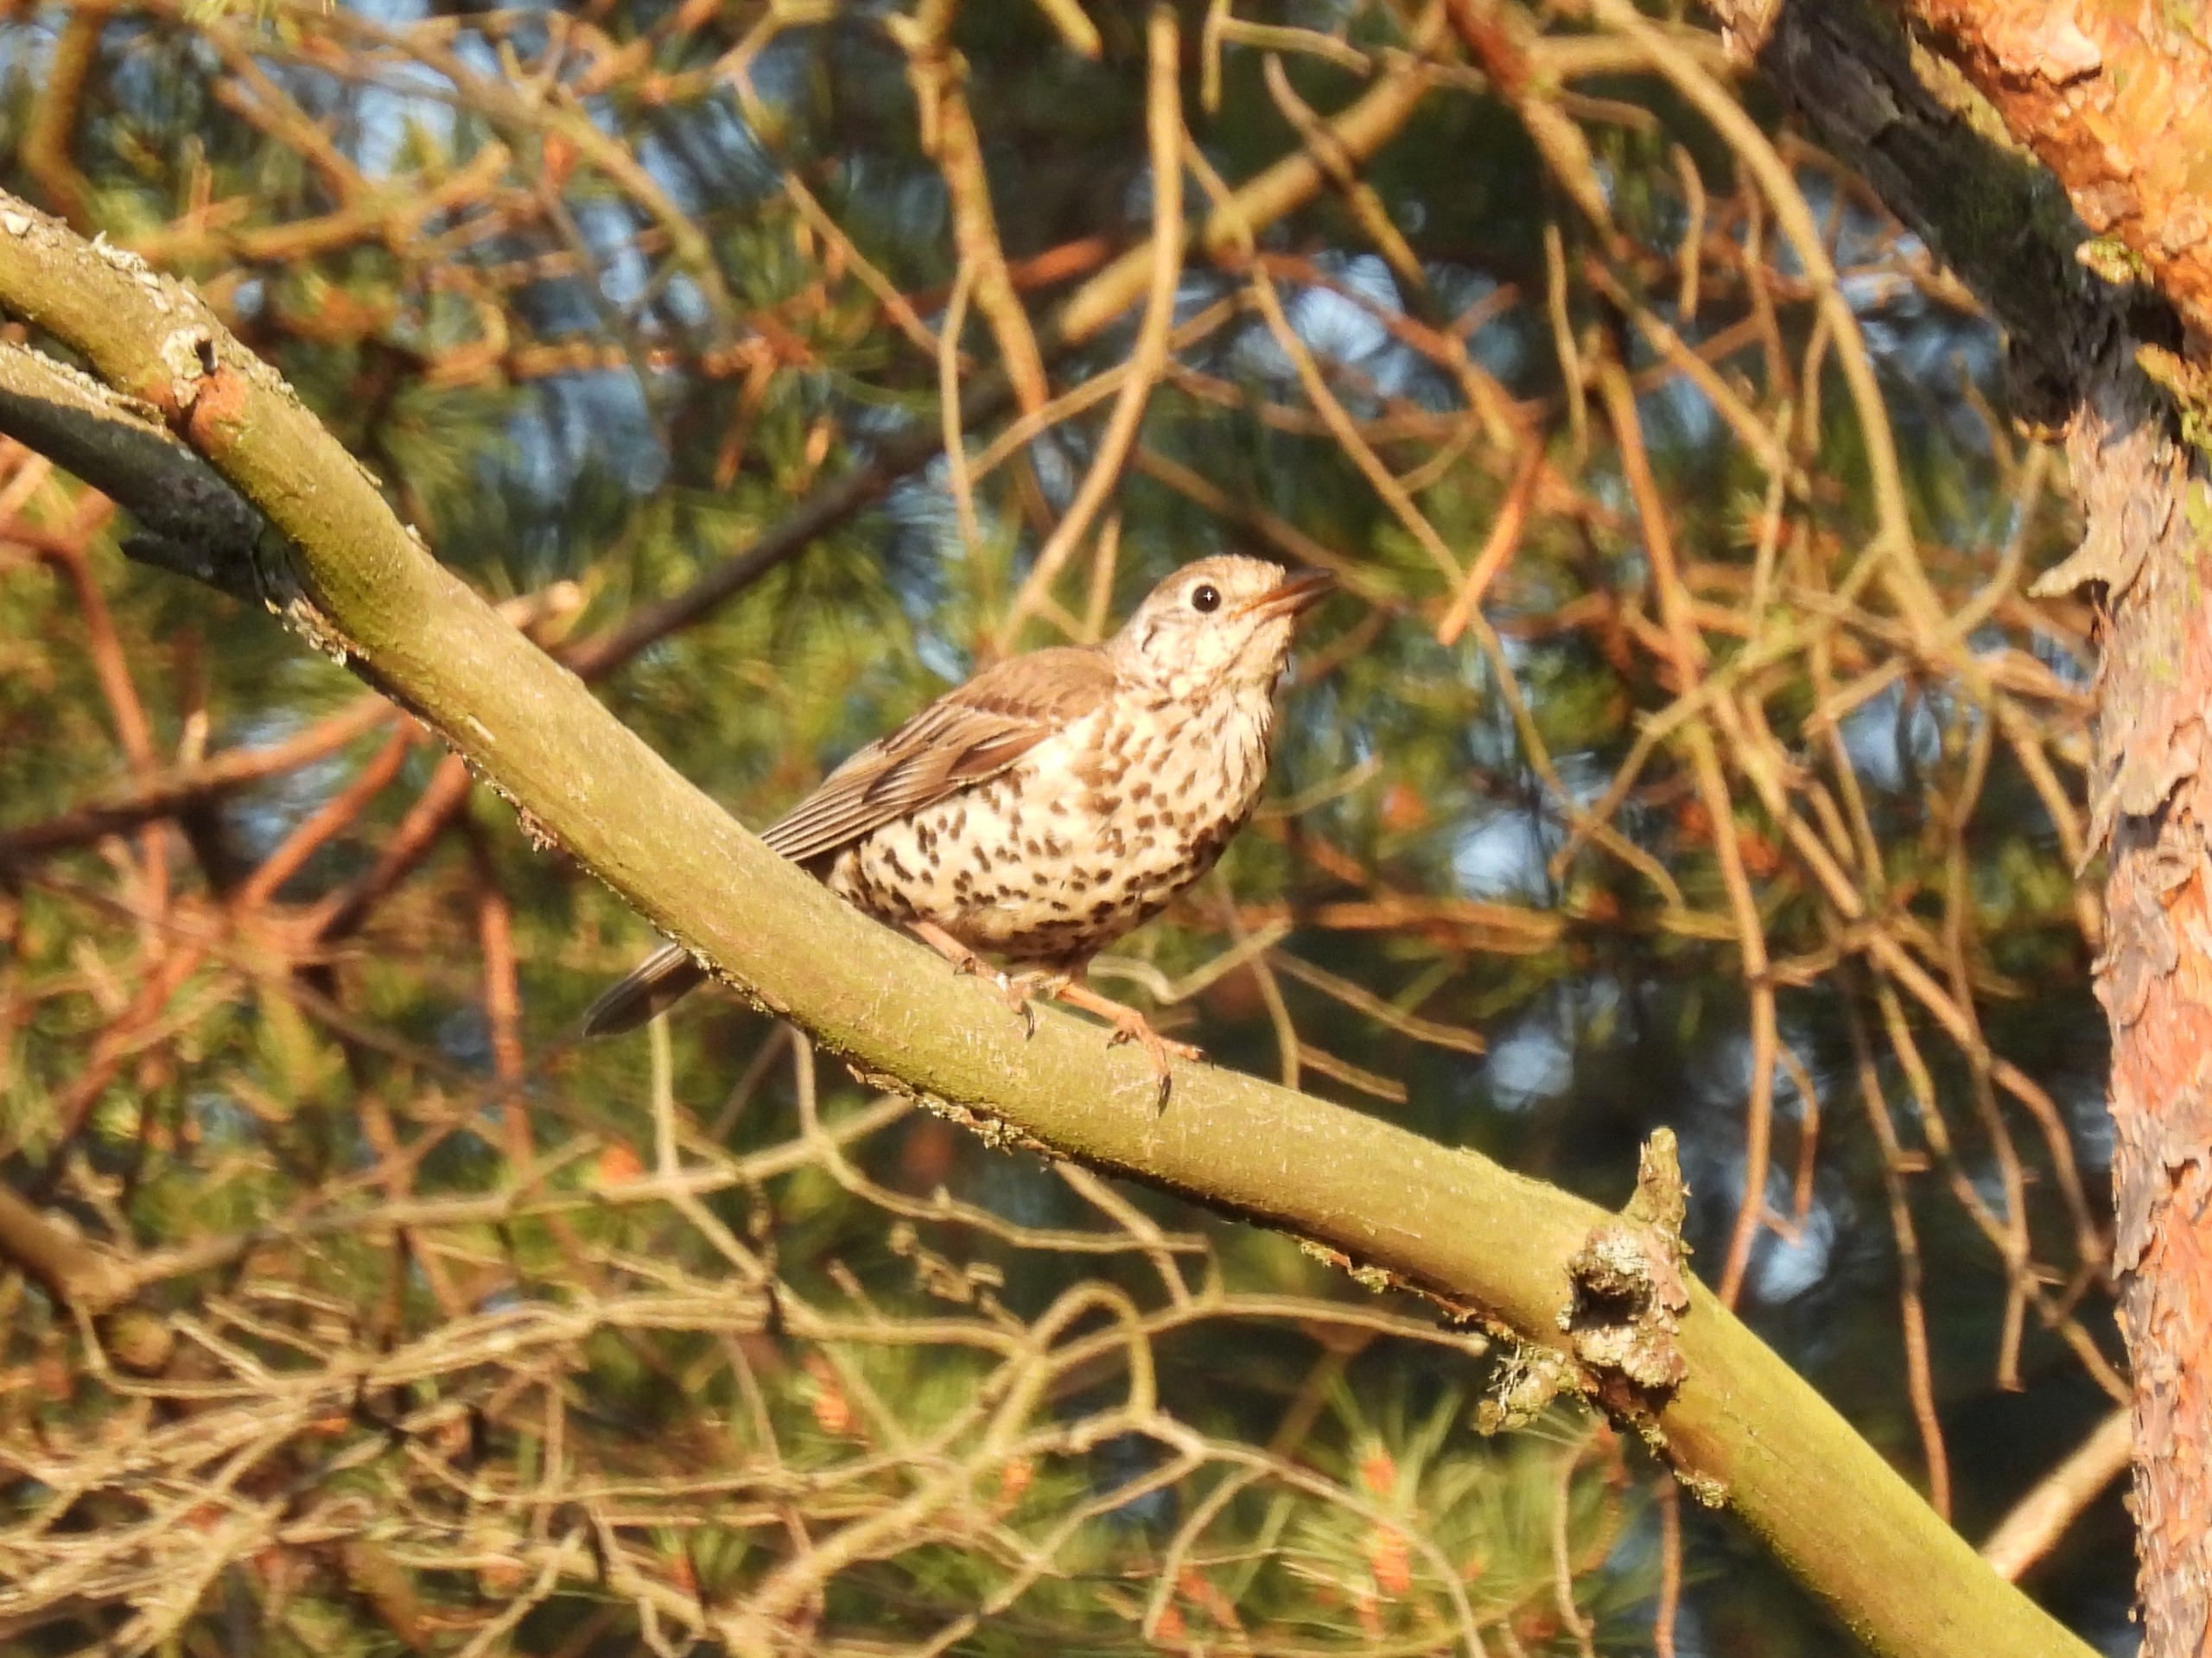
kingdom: Animalia
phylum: Chordata
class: Aves
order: Passeriformes
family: Turdidae
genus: Turdus
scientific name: Turdus viscivorus
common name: Misteldrossel
